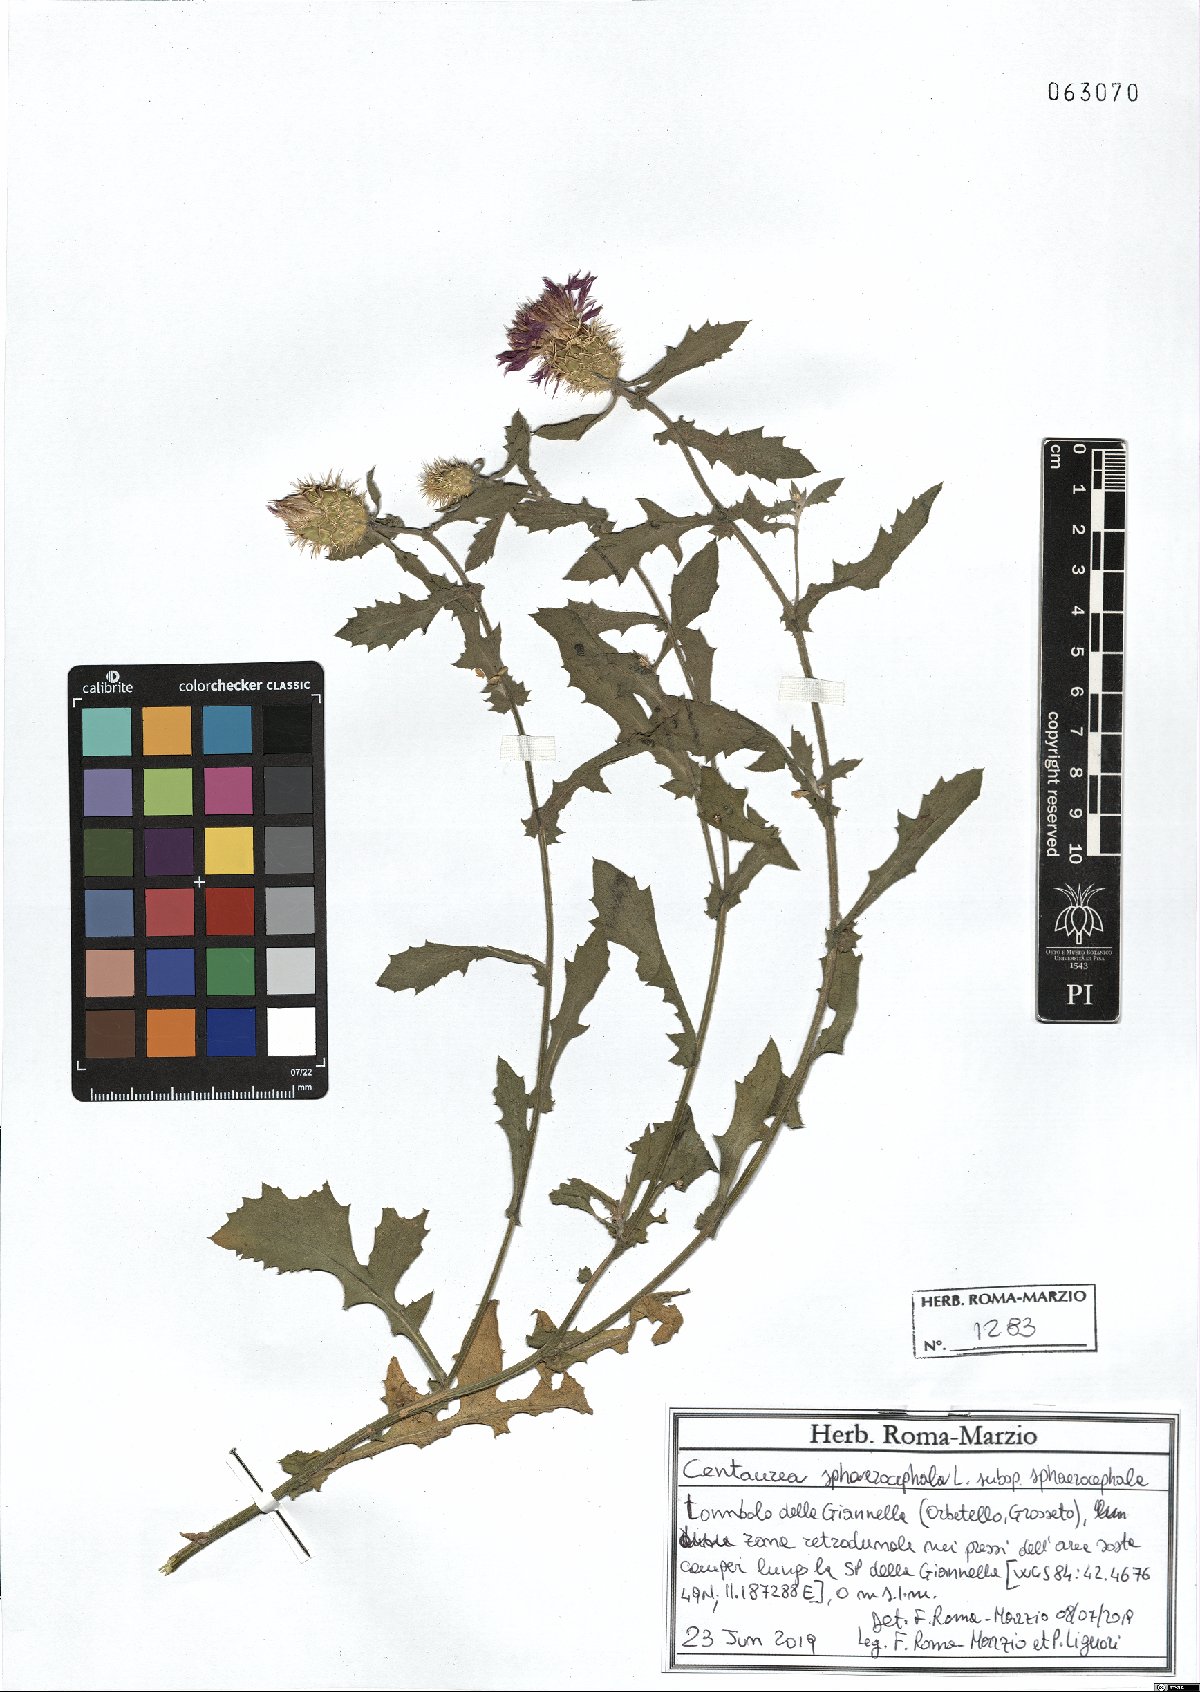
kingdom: Plantae
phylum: Tracheophyta
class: Magnoliopsida
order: Asterales
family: Asteraceae
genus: Centaurea
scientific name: Centaurea sphaerocephala
